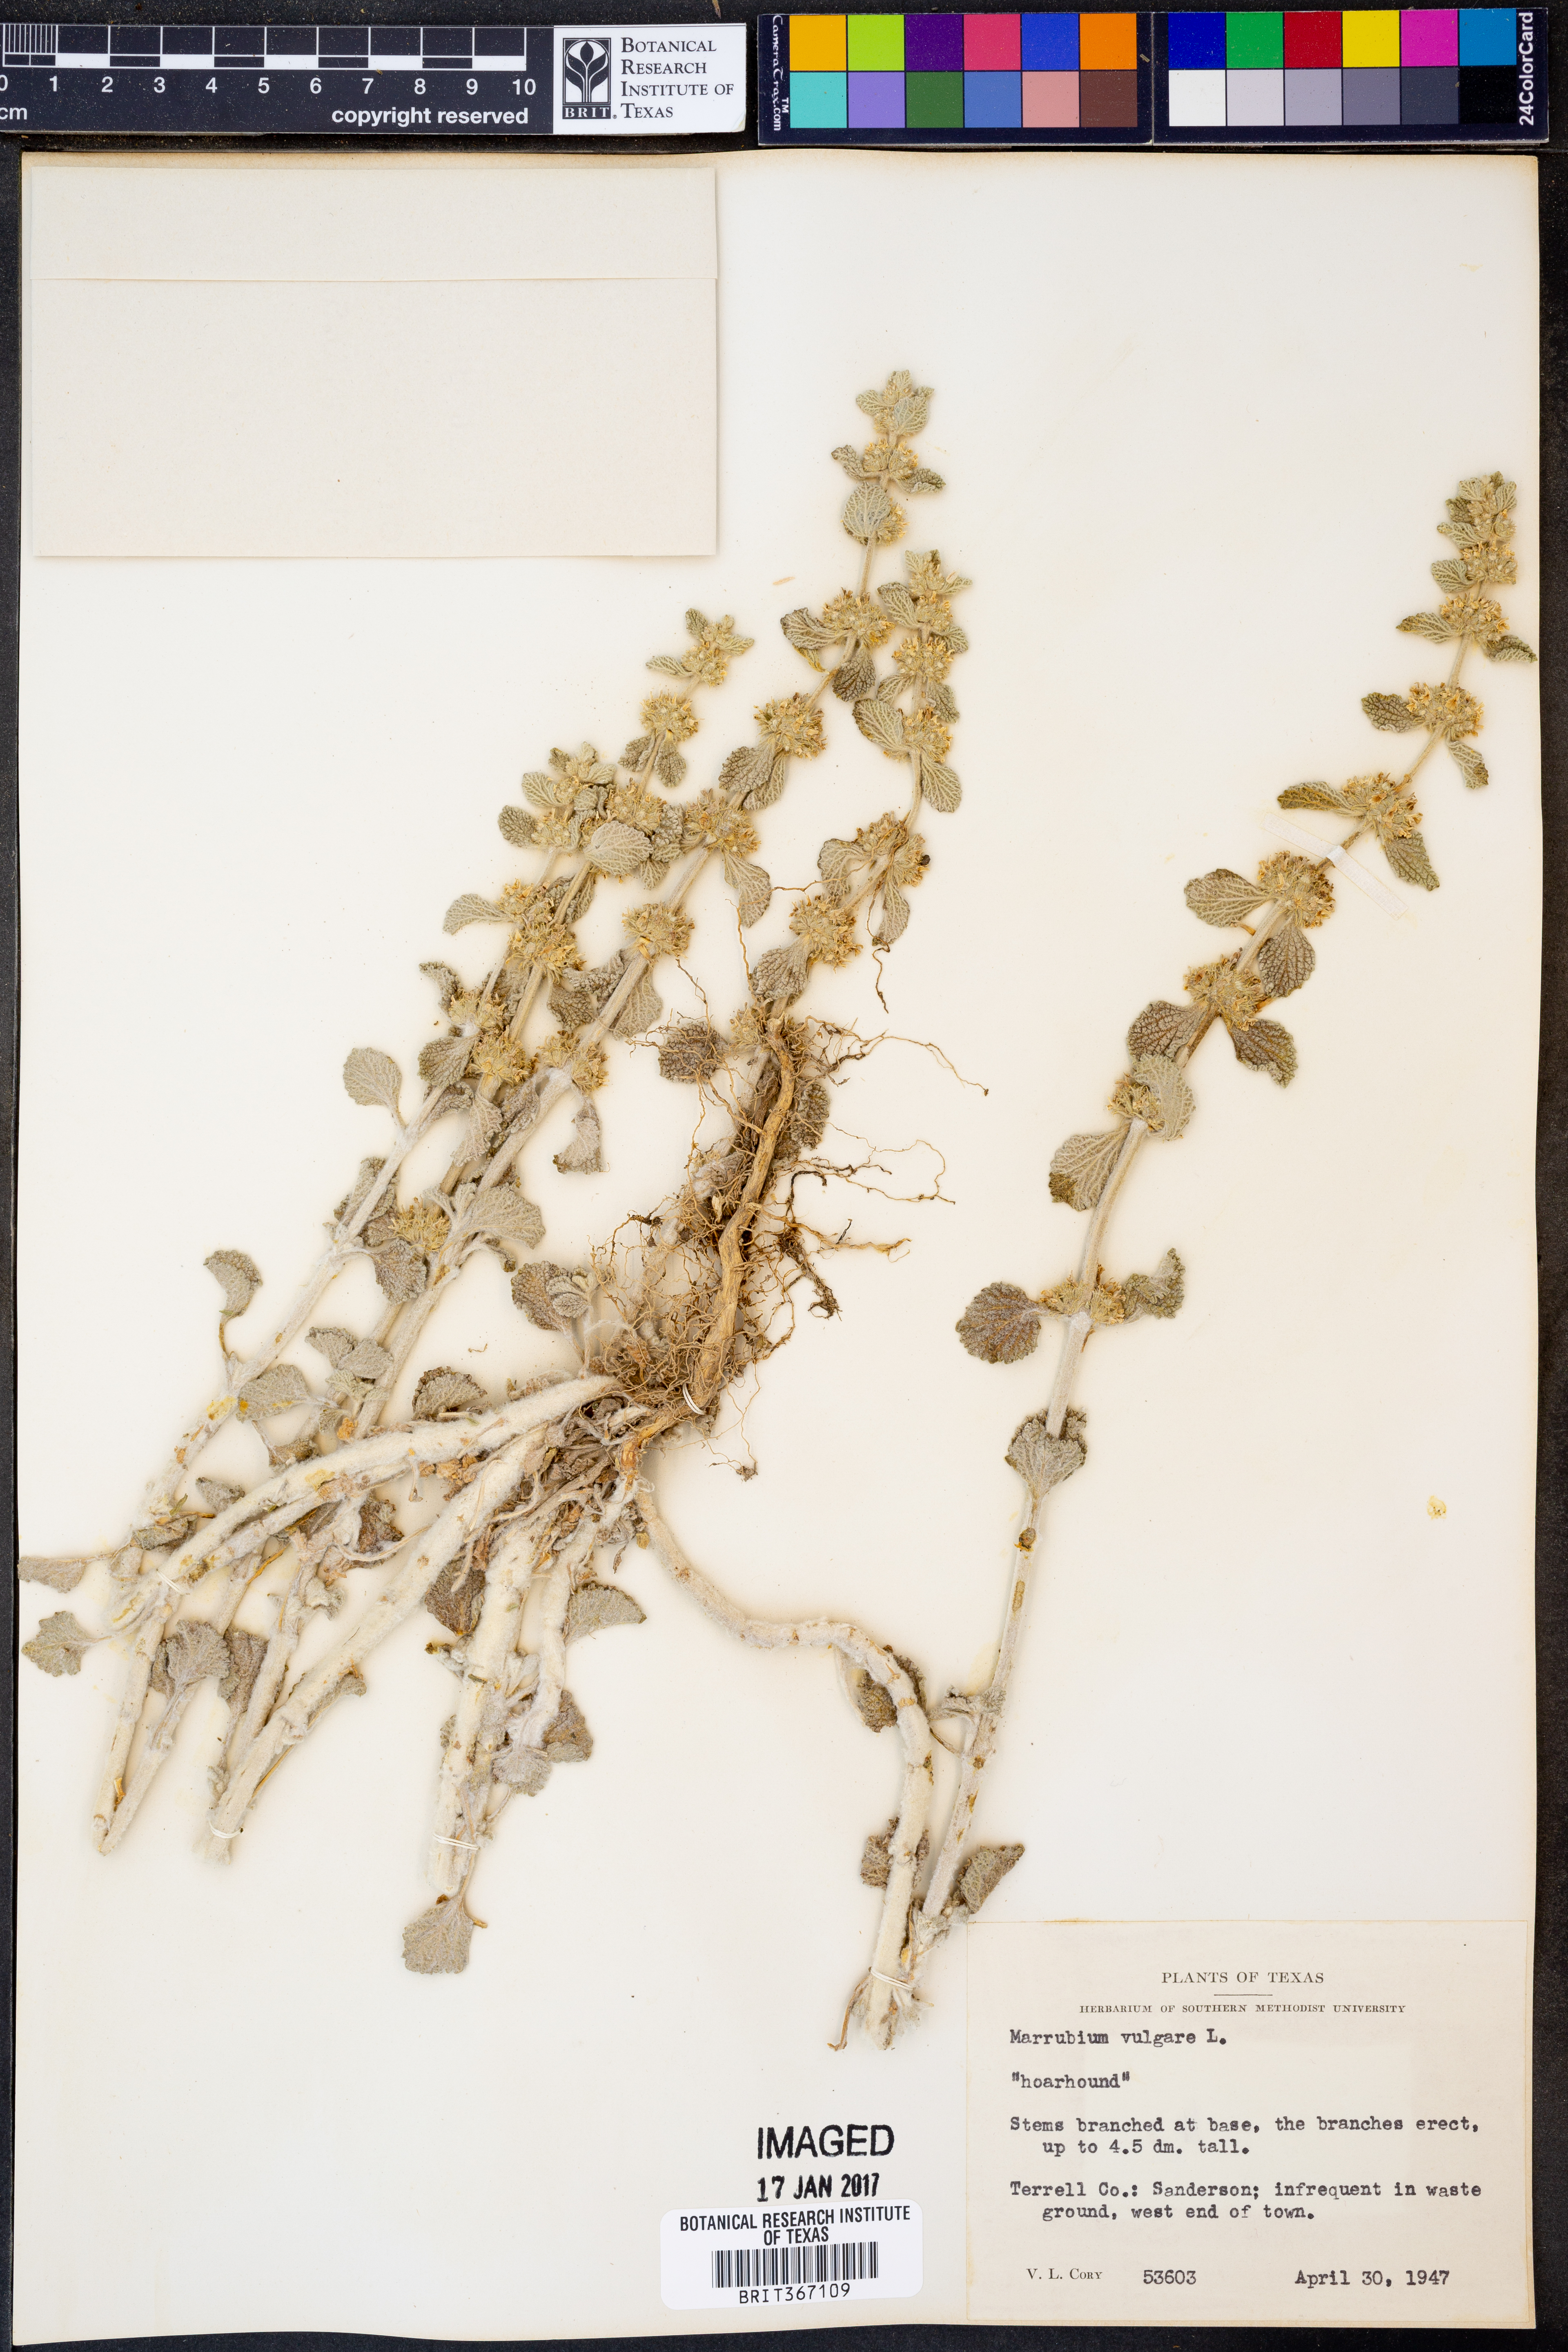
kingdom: Plantae
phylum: Tracheophyta
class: Magnoliopsida
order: Lamiales
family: Lamiaceae
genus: Marrubium
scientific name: Marrubium vulgare
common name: Horehound
